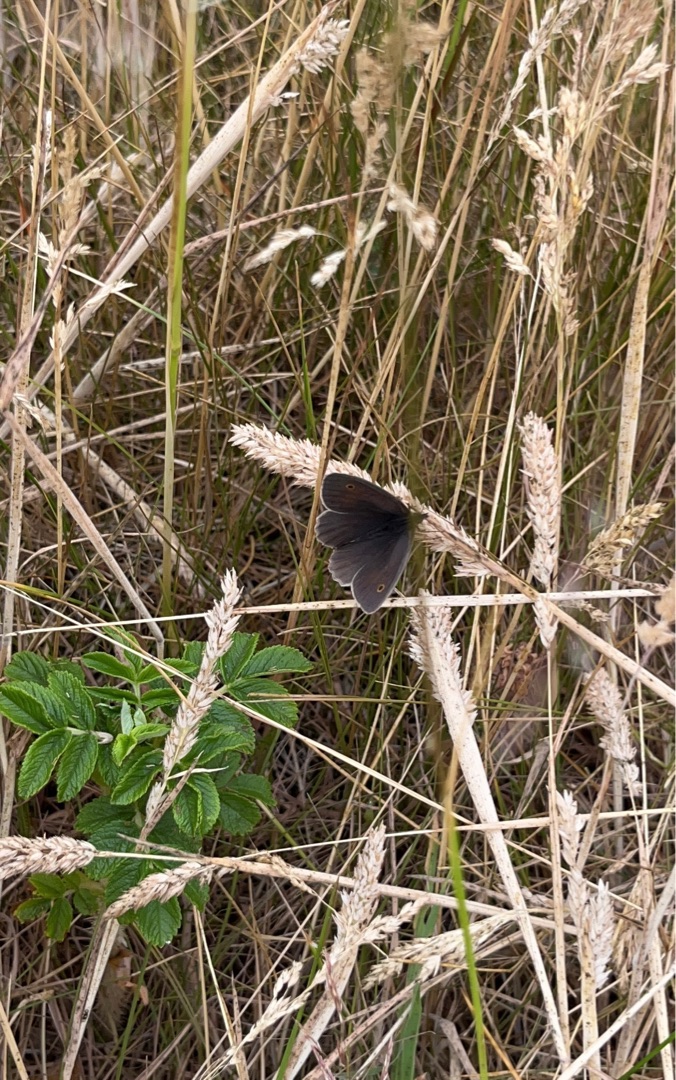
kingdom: Animalia
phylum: Arthropoda
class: Insecta
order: Lepidoptera
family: Nymphalidae
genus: Maniola
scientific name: Maniola jurtina
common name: Græsrandøje
